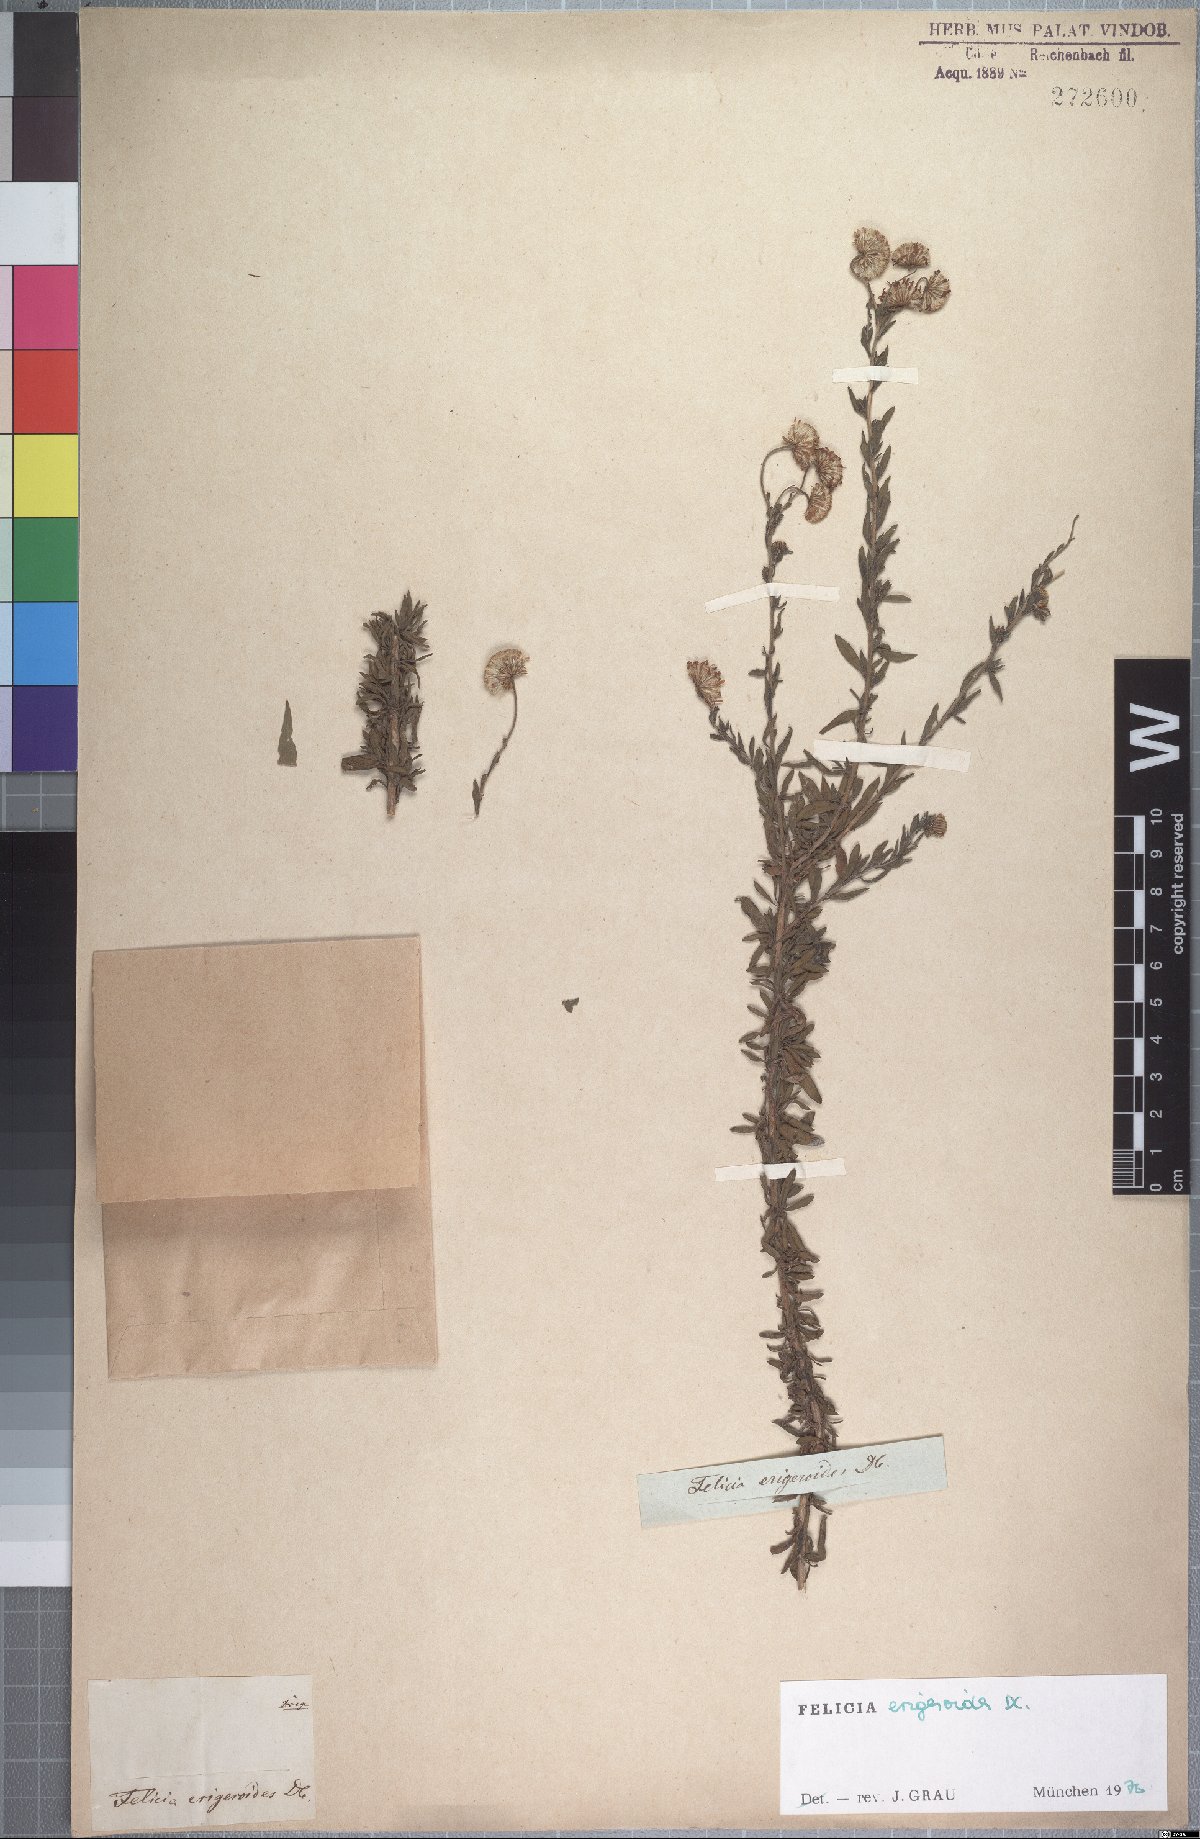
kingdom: Plantae
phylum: Tracheophyta
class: Magnoliopsida
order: Asterales
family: Asteraceae
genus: Felicia
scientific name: Felicia erigeroides
